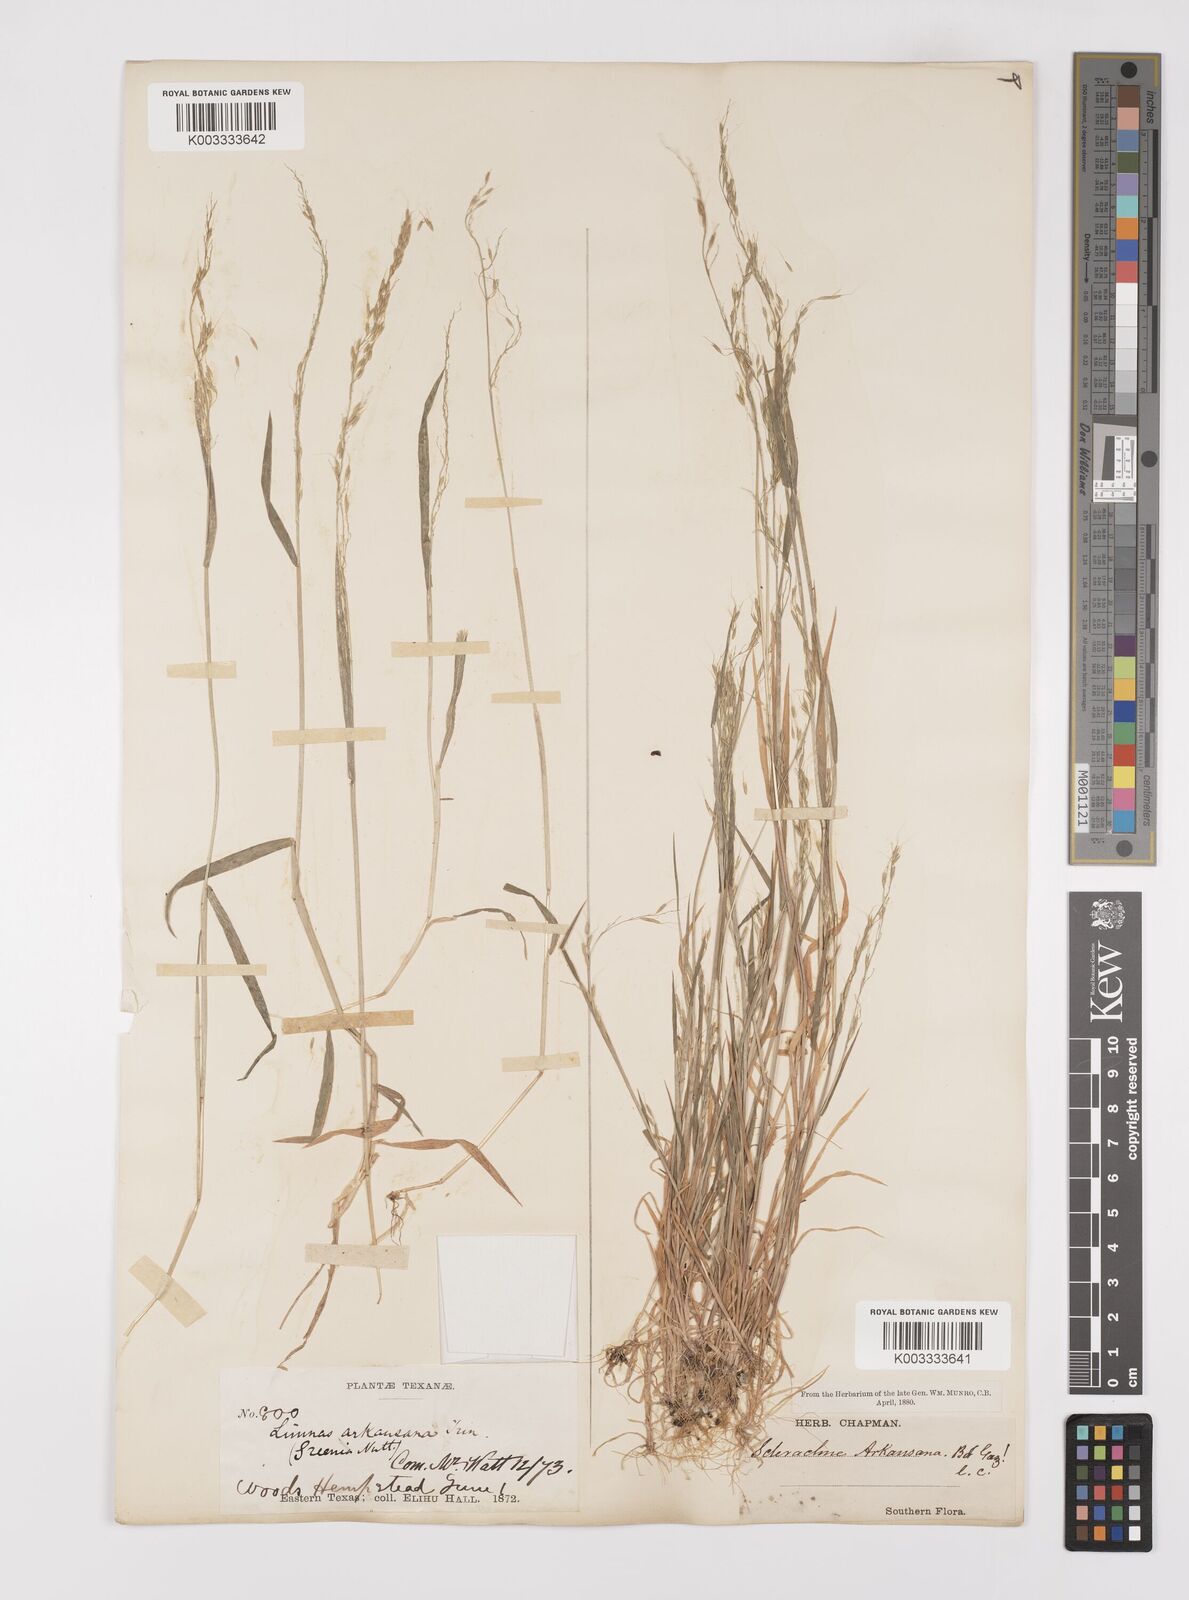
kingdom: Plantae
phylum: Tracheophyta
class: Liliopsida
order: Poales
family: Poaceae
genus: Limnodea
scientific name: Limnodea arkansana
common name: Ozark-grass
